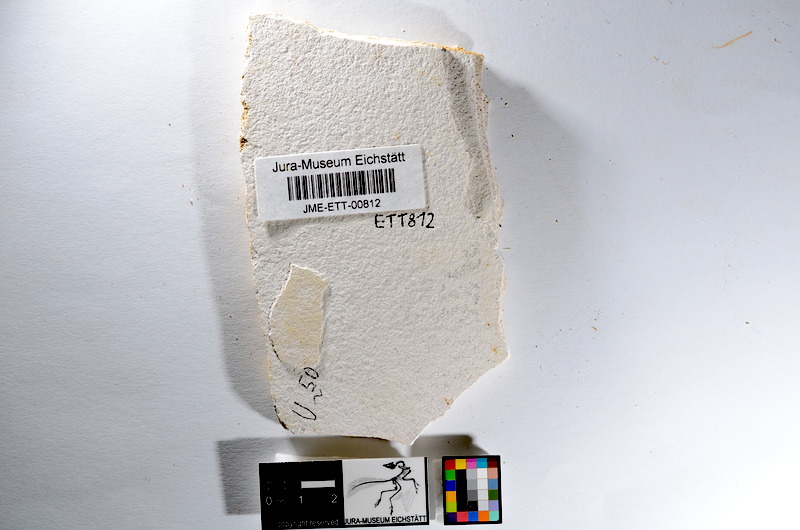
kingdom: Animalia
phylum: Chordata
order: Salmoniformes
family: Orthogonikleithridae
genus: Orthogonikleithrus
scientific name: Orthogonikleithrus hoelli
